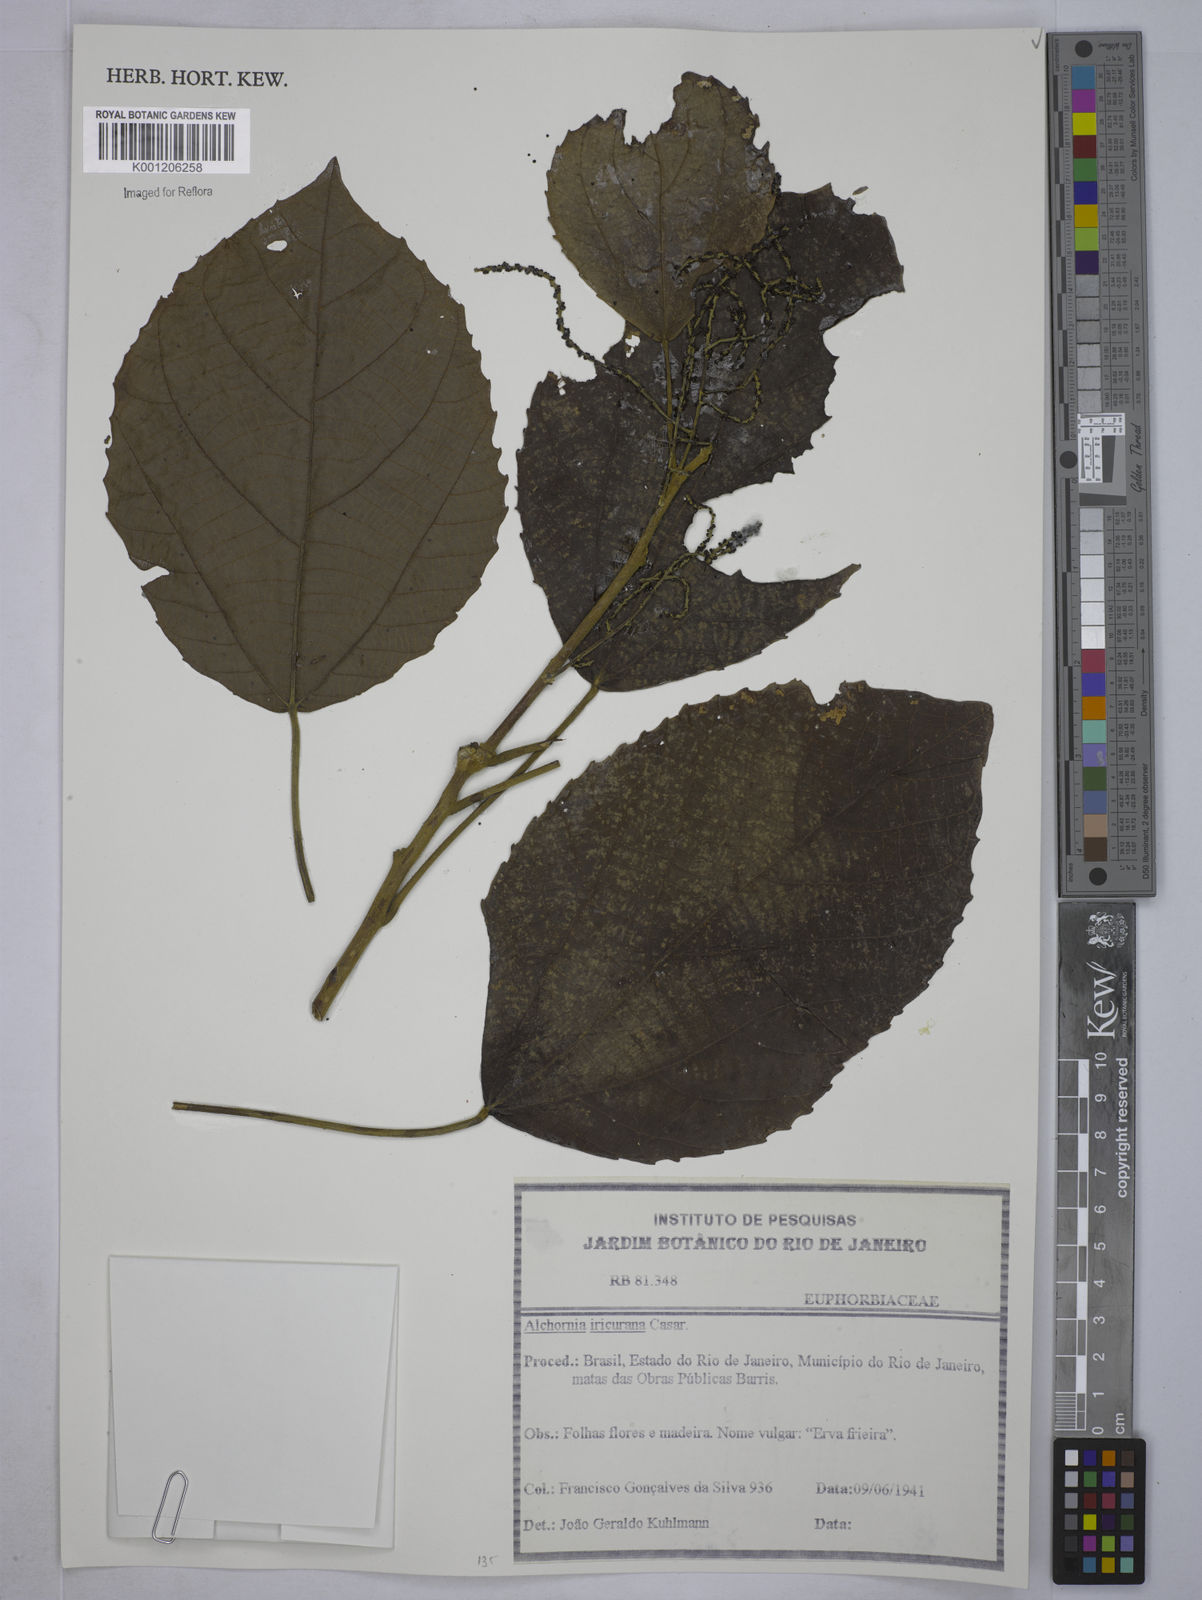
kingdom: Plantae
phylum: Tracheophyta
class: Magnoliopsida
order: Malpighiales
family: Euphorbiaceae
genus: Alchornea
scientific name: Alchornea glandulosa
